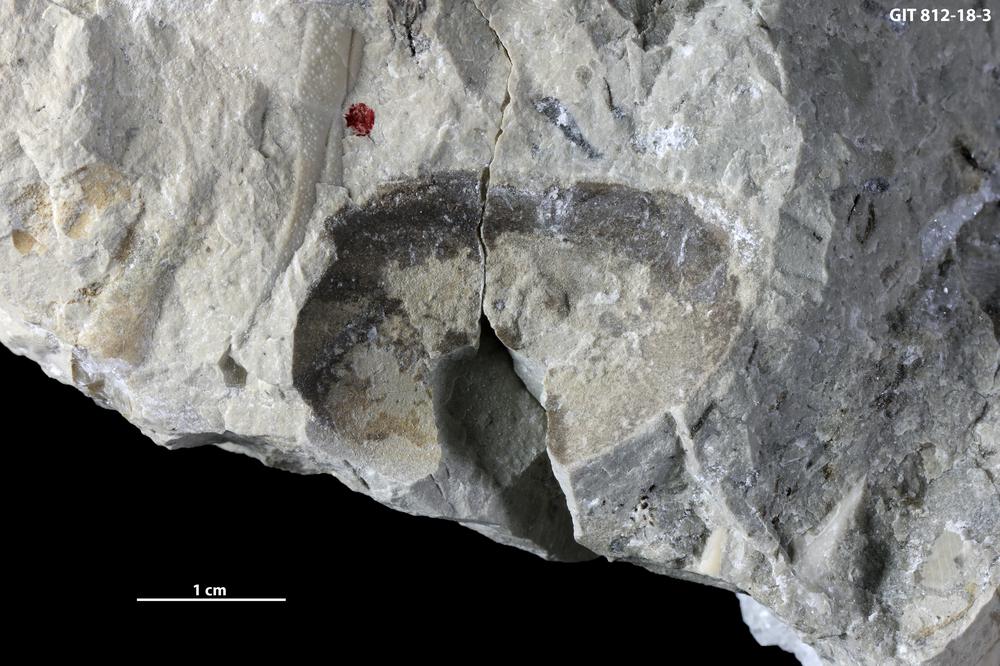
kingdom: Animalia
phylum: Mollusca
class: Bivalvia
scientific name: Bivalvia
